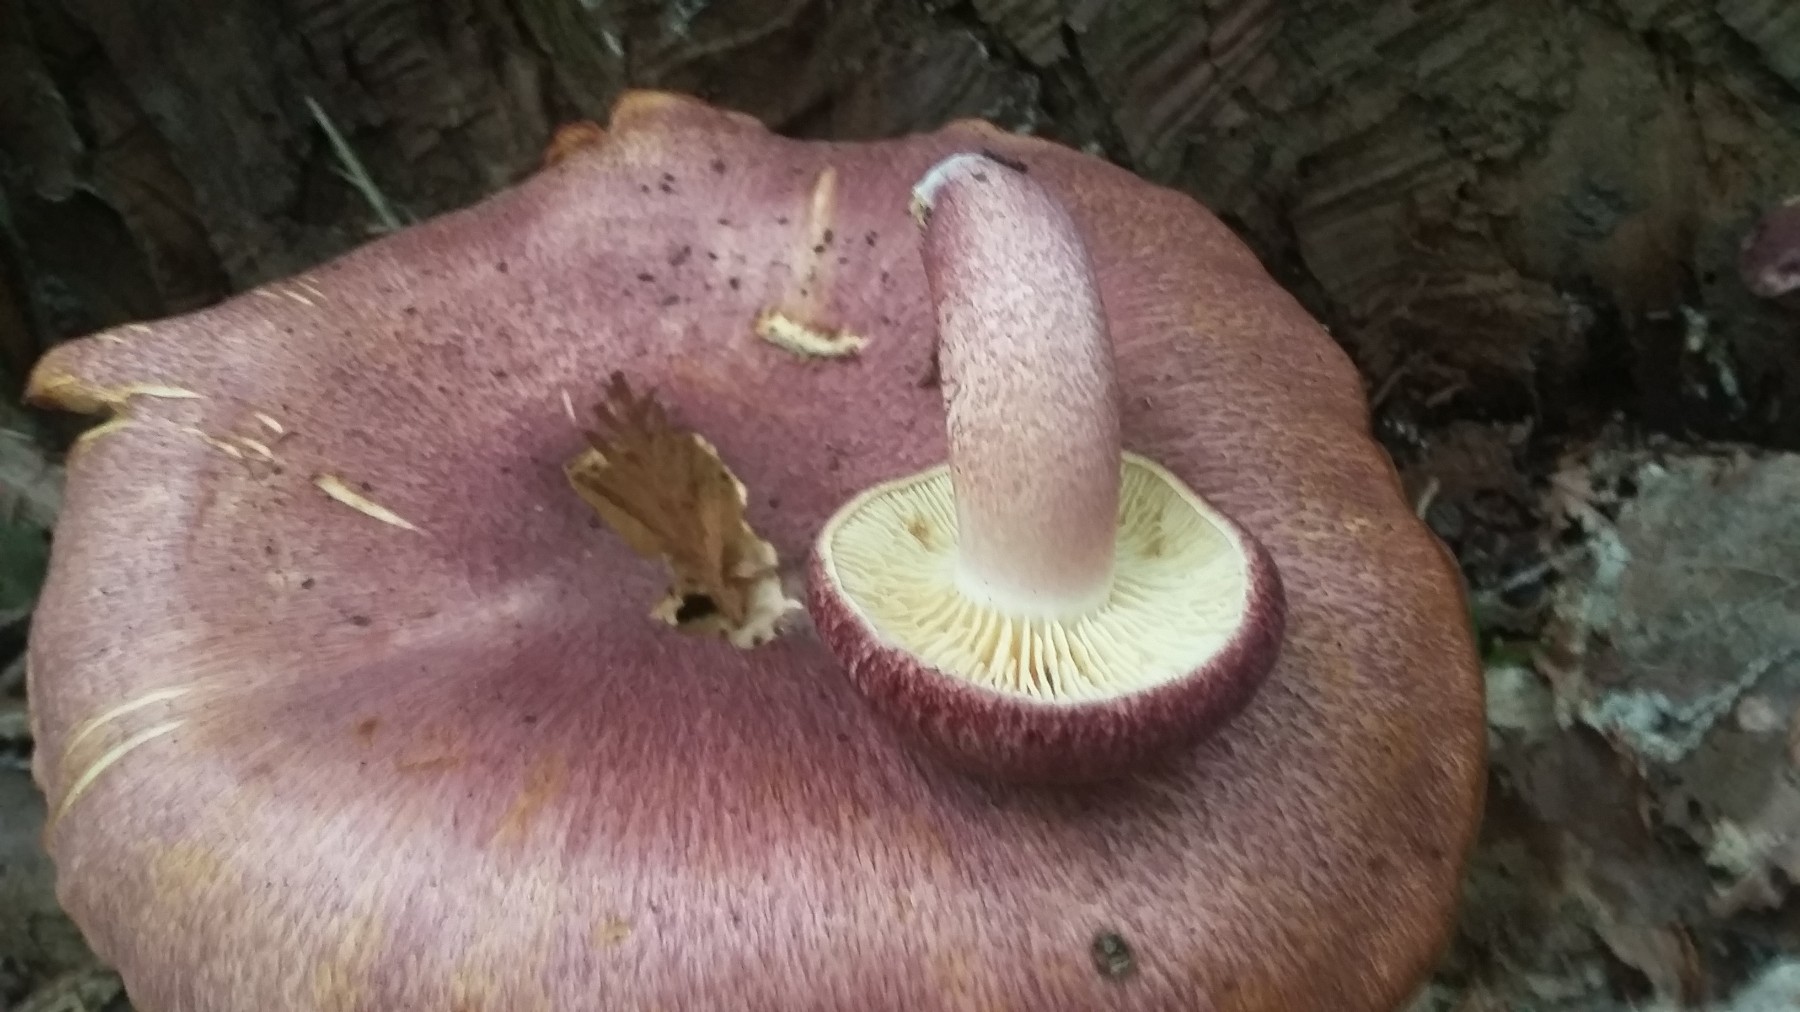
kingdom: Fungi
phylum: Basidiomycota
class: Agaricomycetes
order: Agaricales
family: Tricholomataceae
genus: Tricholomopsis
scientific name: Tricholomopsis rutilans
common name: purpur-væbnerhat
